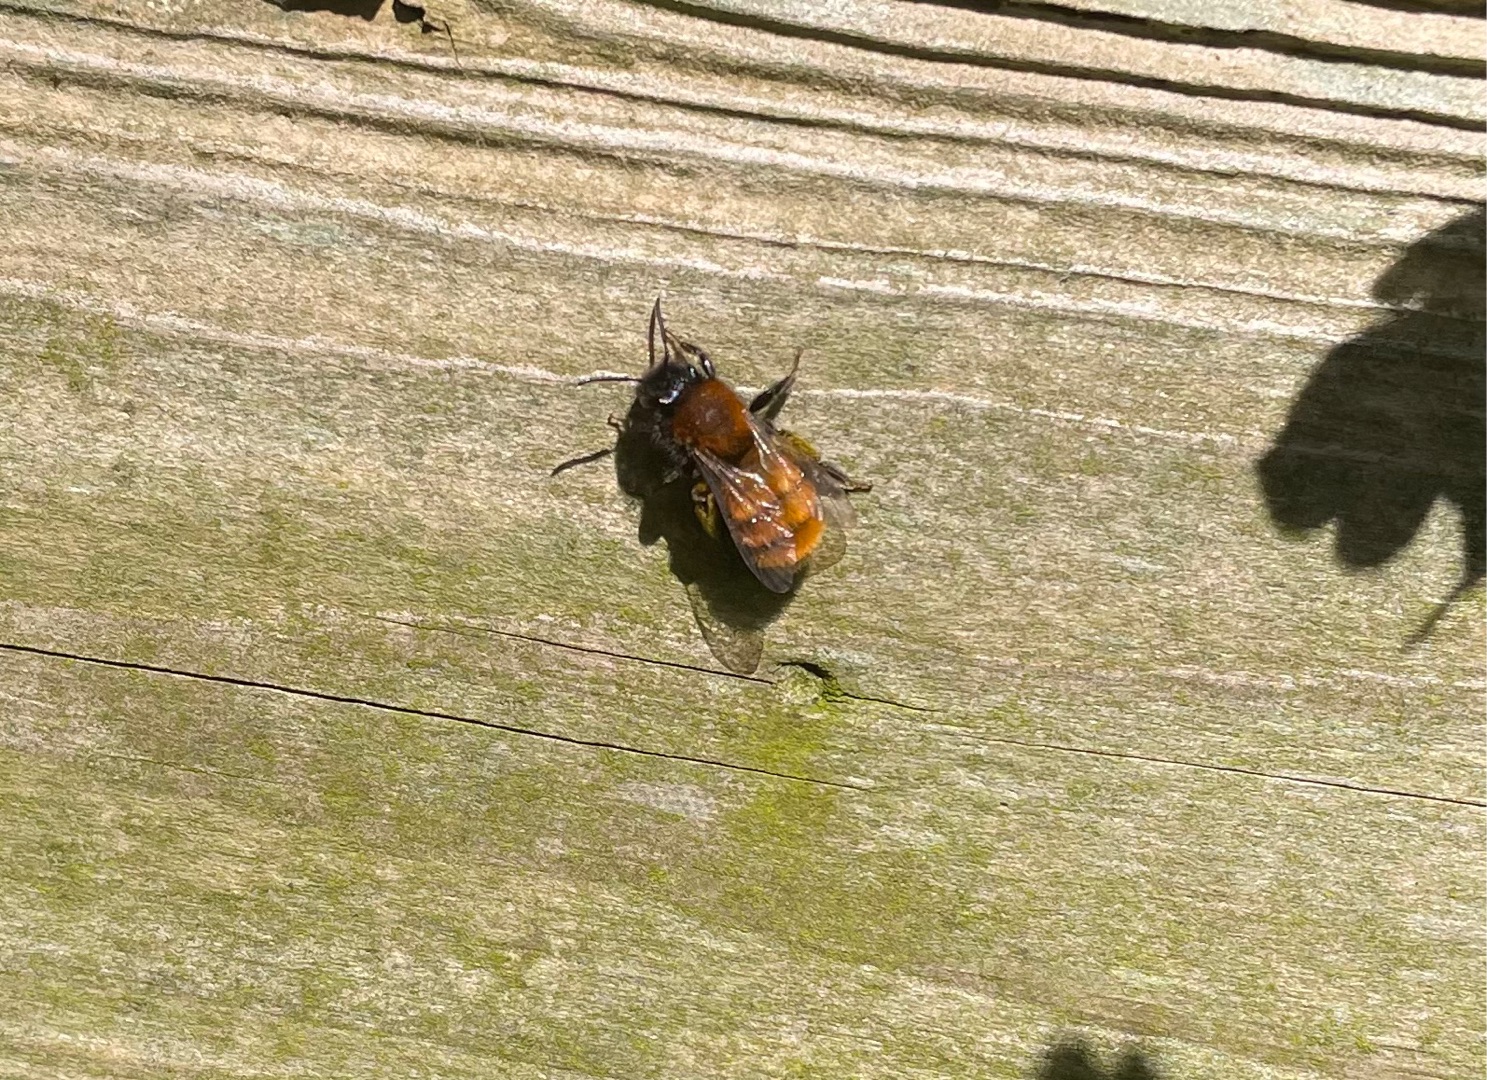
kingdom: Animalia
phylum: Arthropoda
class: Insecta
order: Hymenoptera
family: Andrenidae
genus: Andrena
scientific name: Andrena fulva
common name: Rødpelset jordbi
